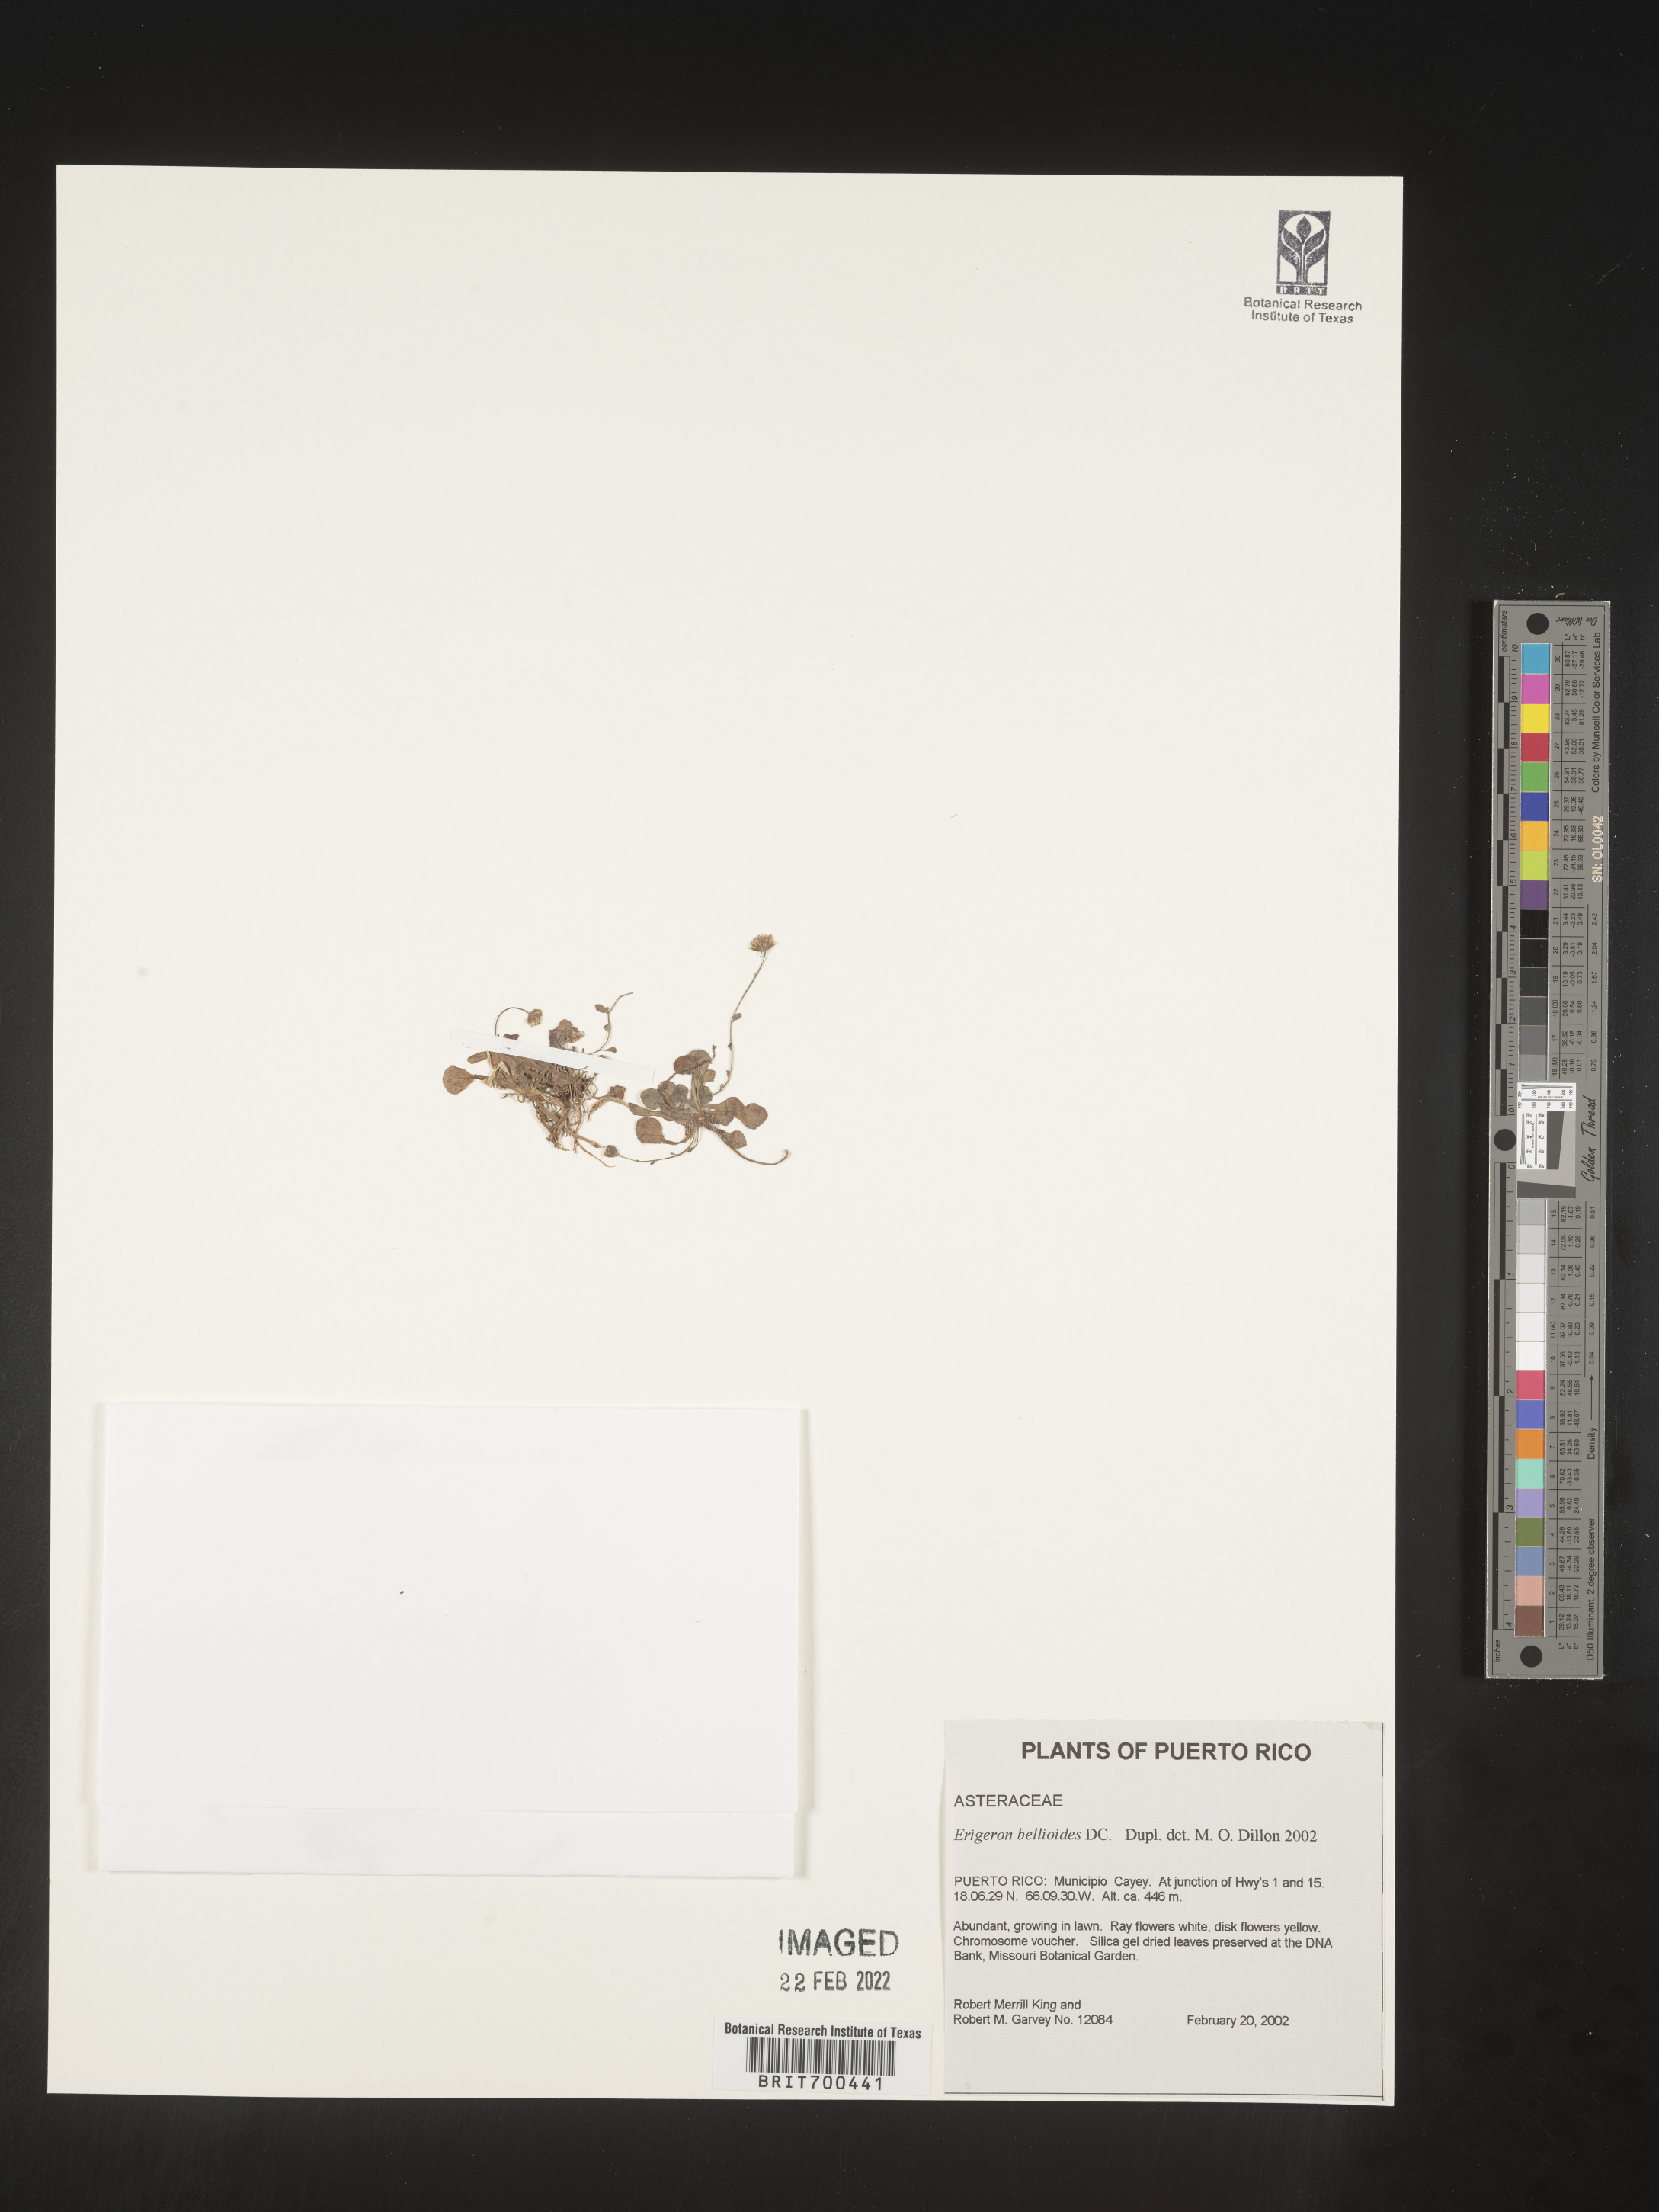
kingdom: Plantae
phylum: Tracheophyta
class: Magnoliopsida
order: Asterales
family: Asteraceae
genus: Erigeron
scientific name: Erigeron
